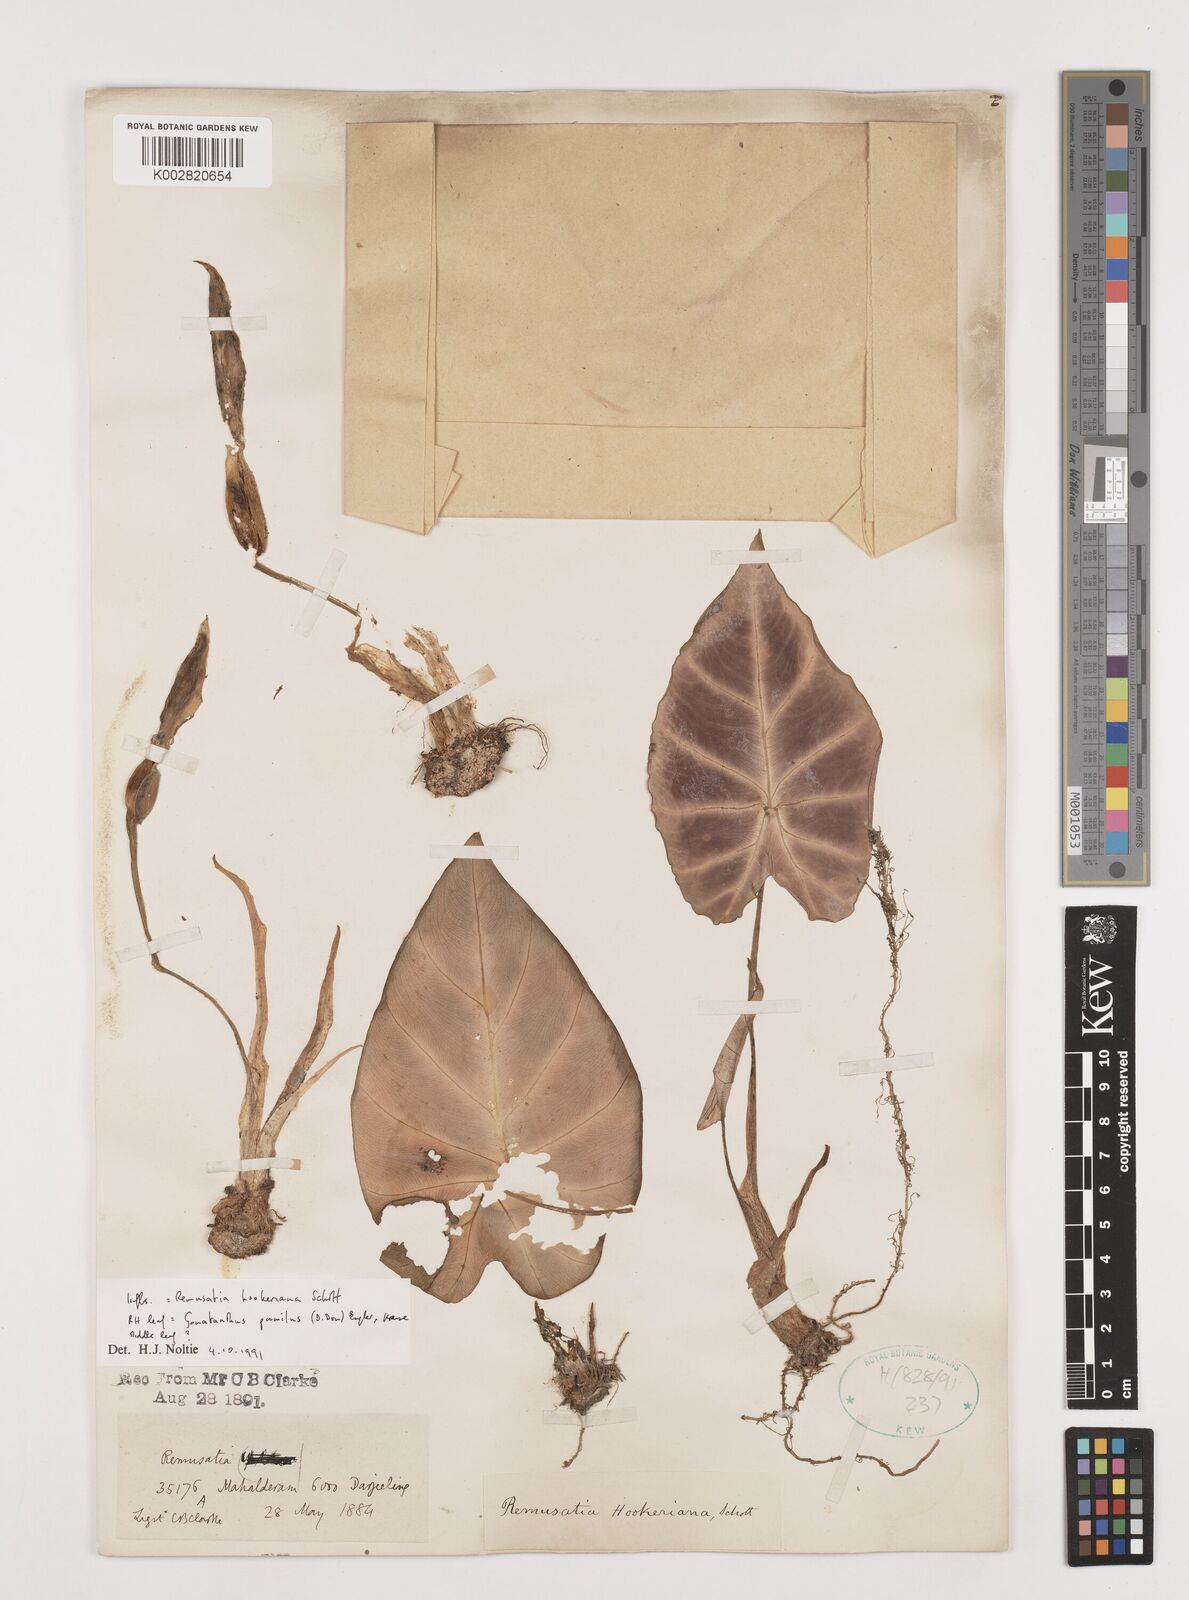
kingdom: Plantae
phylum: Tracheophyta
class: Liliopsida
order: Alismatales
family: Araceae
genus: Remusatia
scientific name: Remusatia hookeriana
